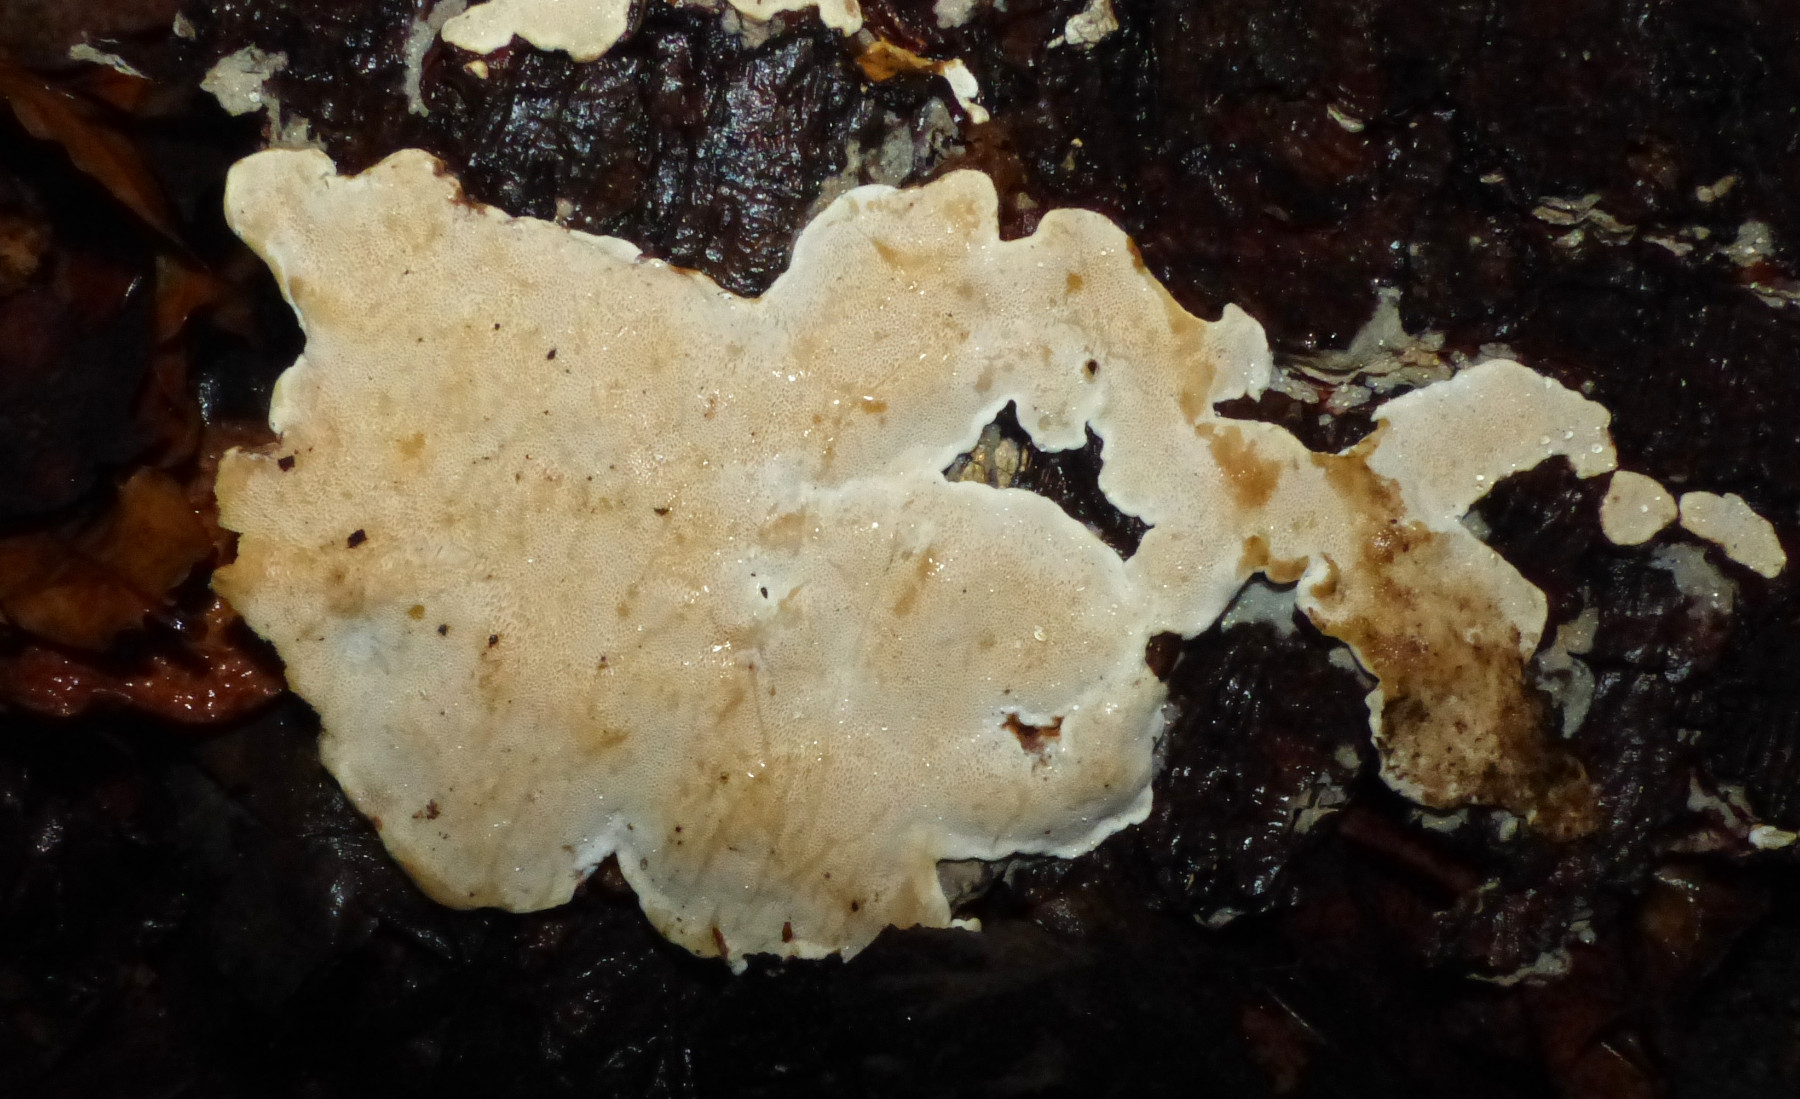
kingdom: Fungi
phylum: Basidiomycota
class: Agaricomycetes
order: Russulales
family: Bondarzewiaceae
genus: Heterobasidion
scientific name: Heterobasidion
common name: rodfordærver
